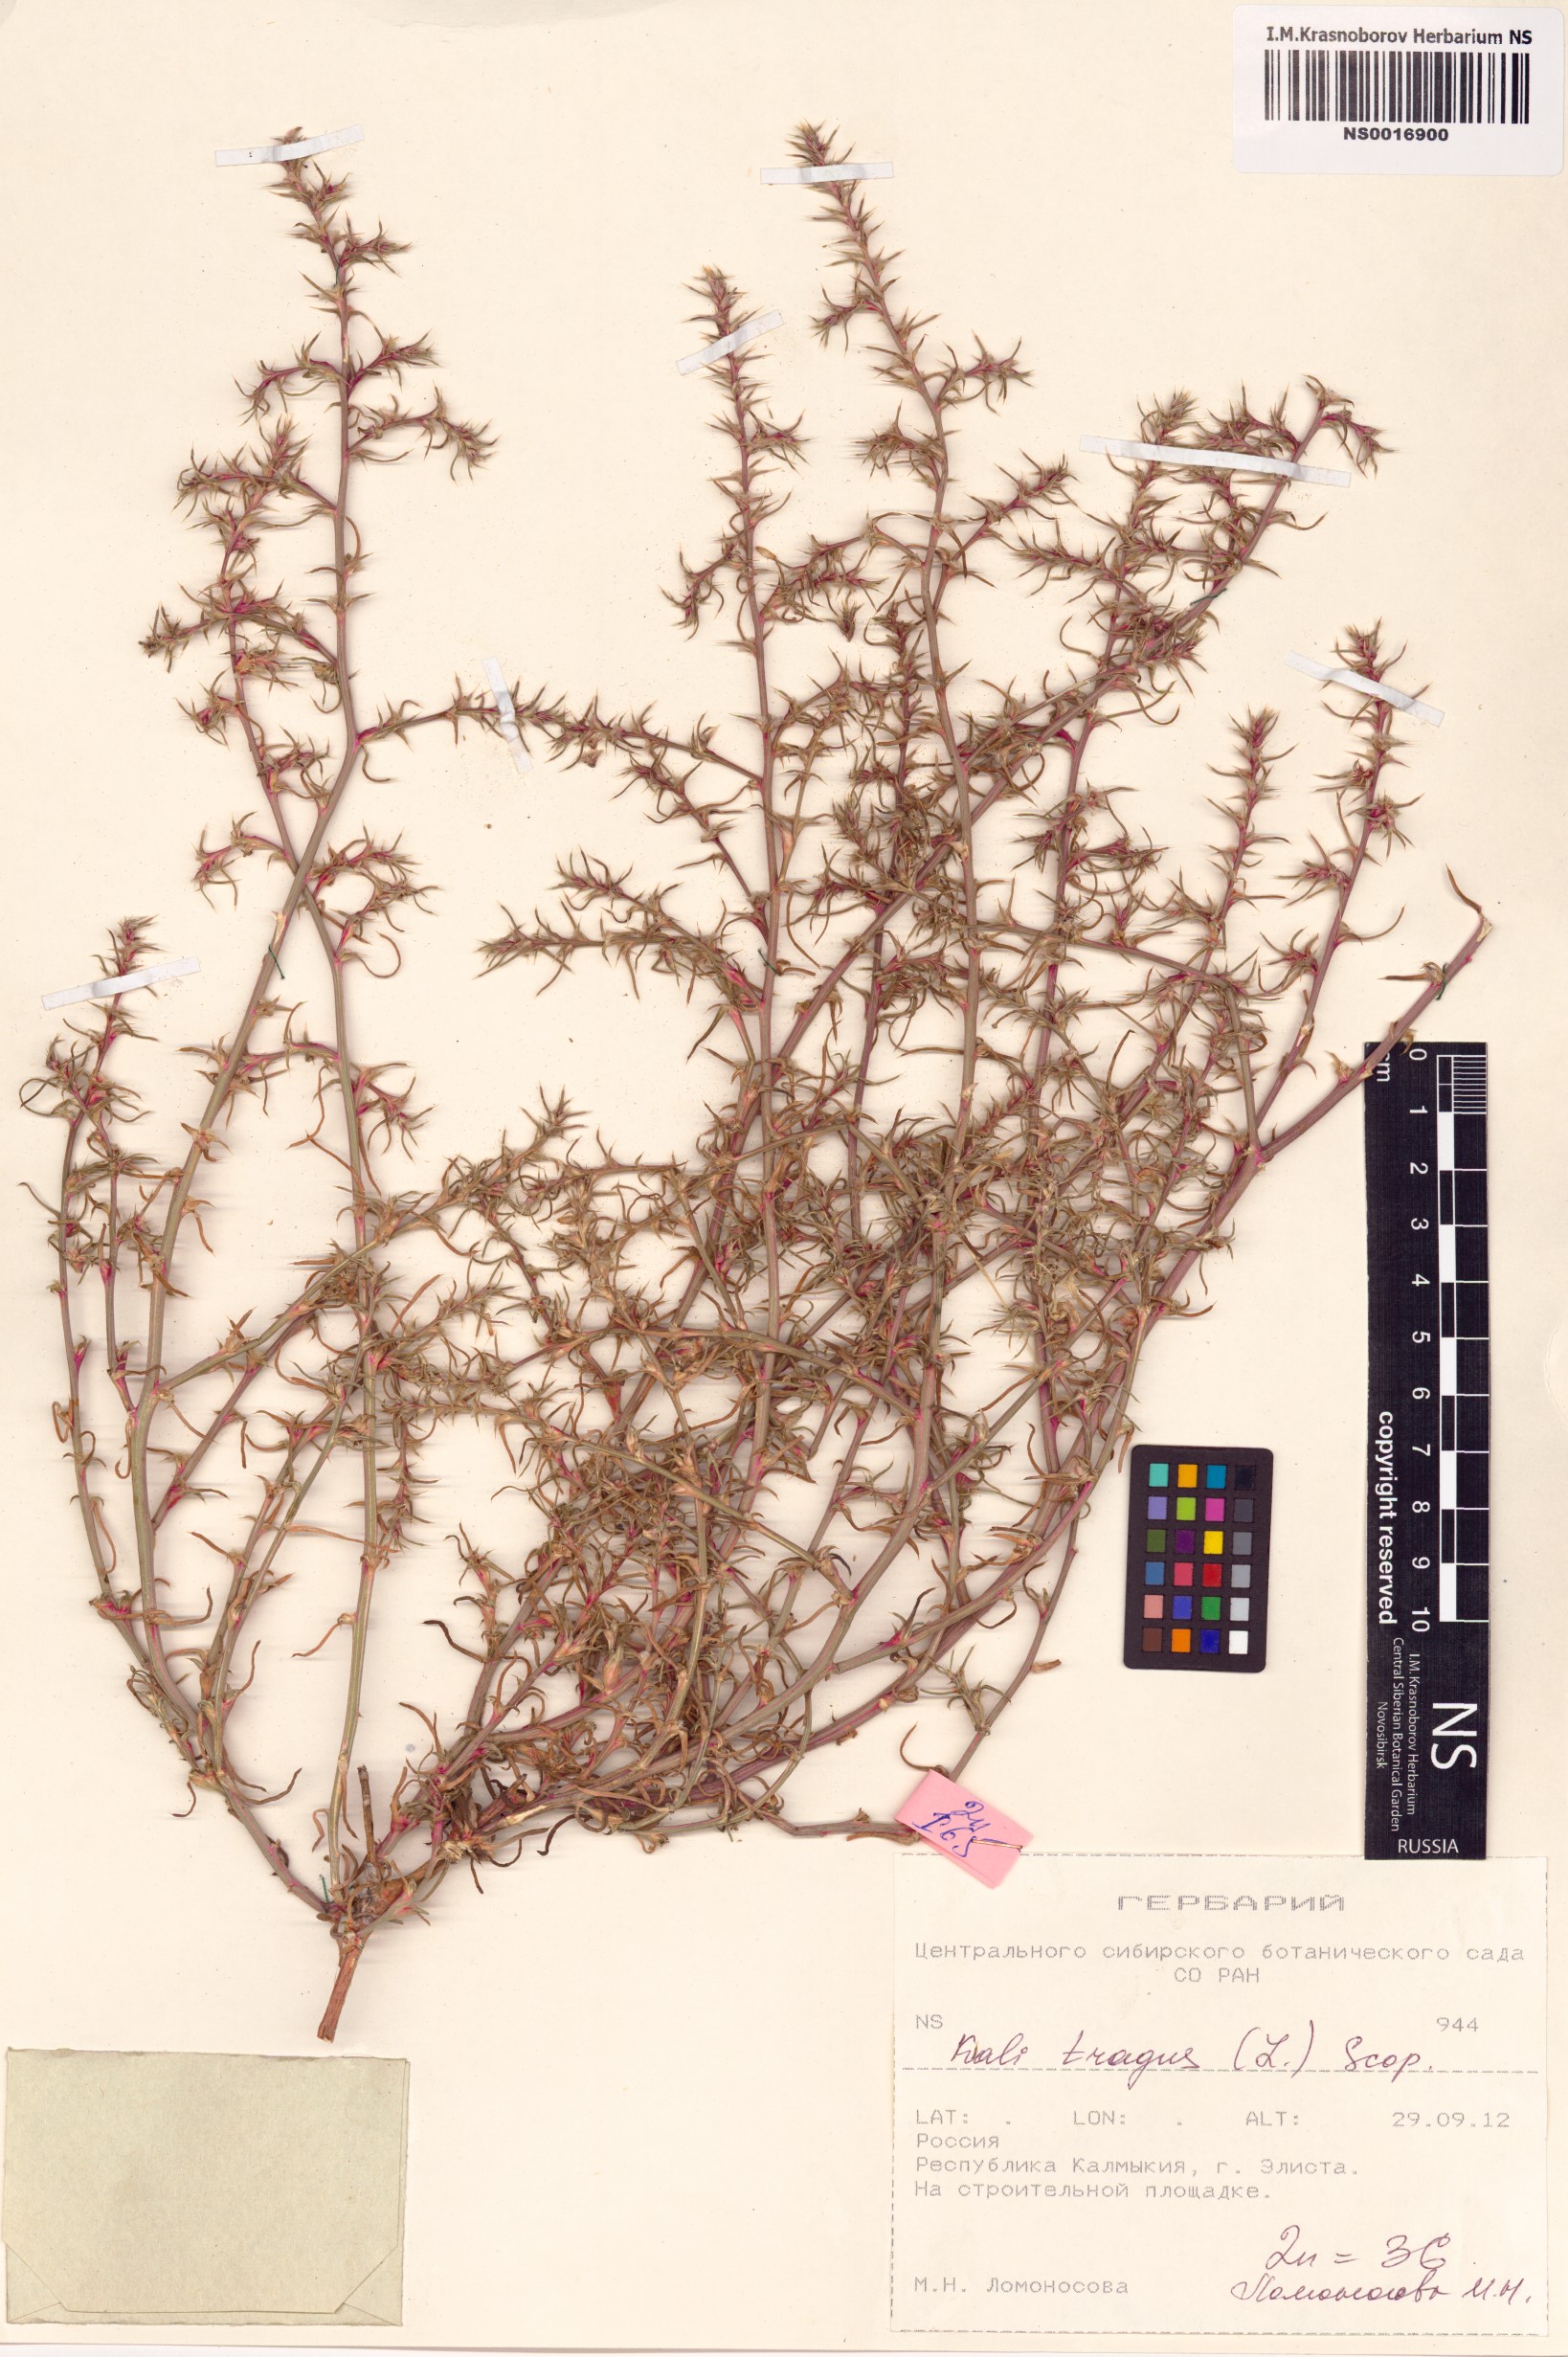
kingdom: Plantae
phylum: Tracheophyta
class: Magnoliopsida
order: Caryophyllales
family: Amaranthaceae
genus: Salsola
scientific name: Salsola tragus
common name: Prickly russian thistle
